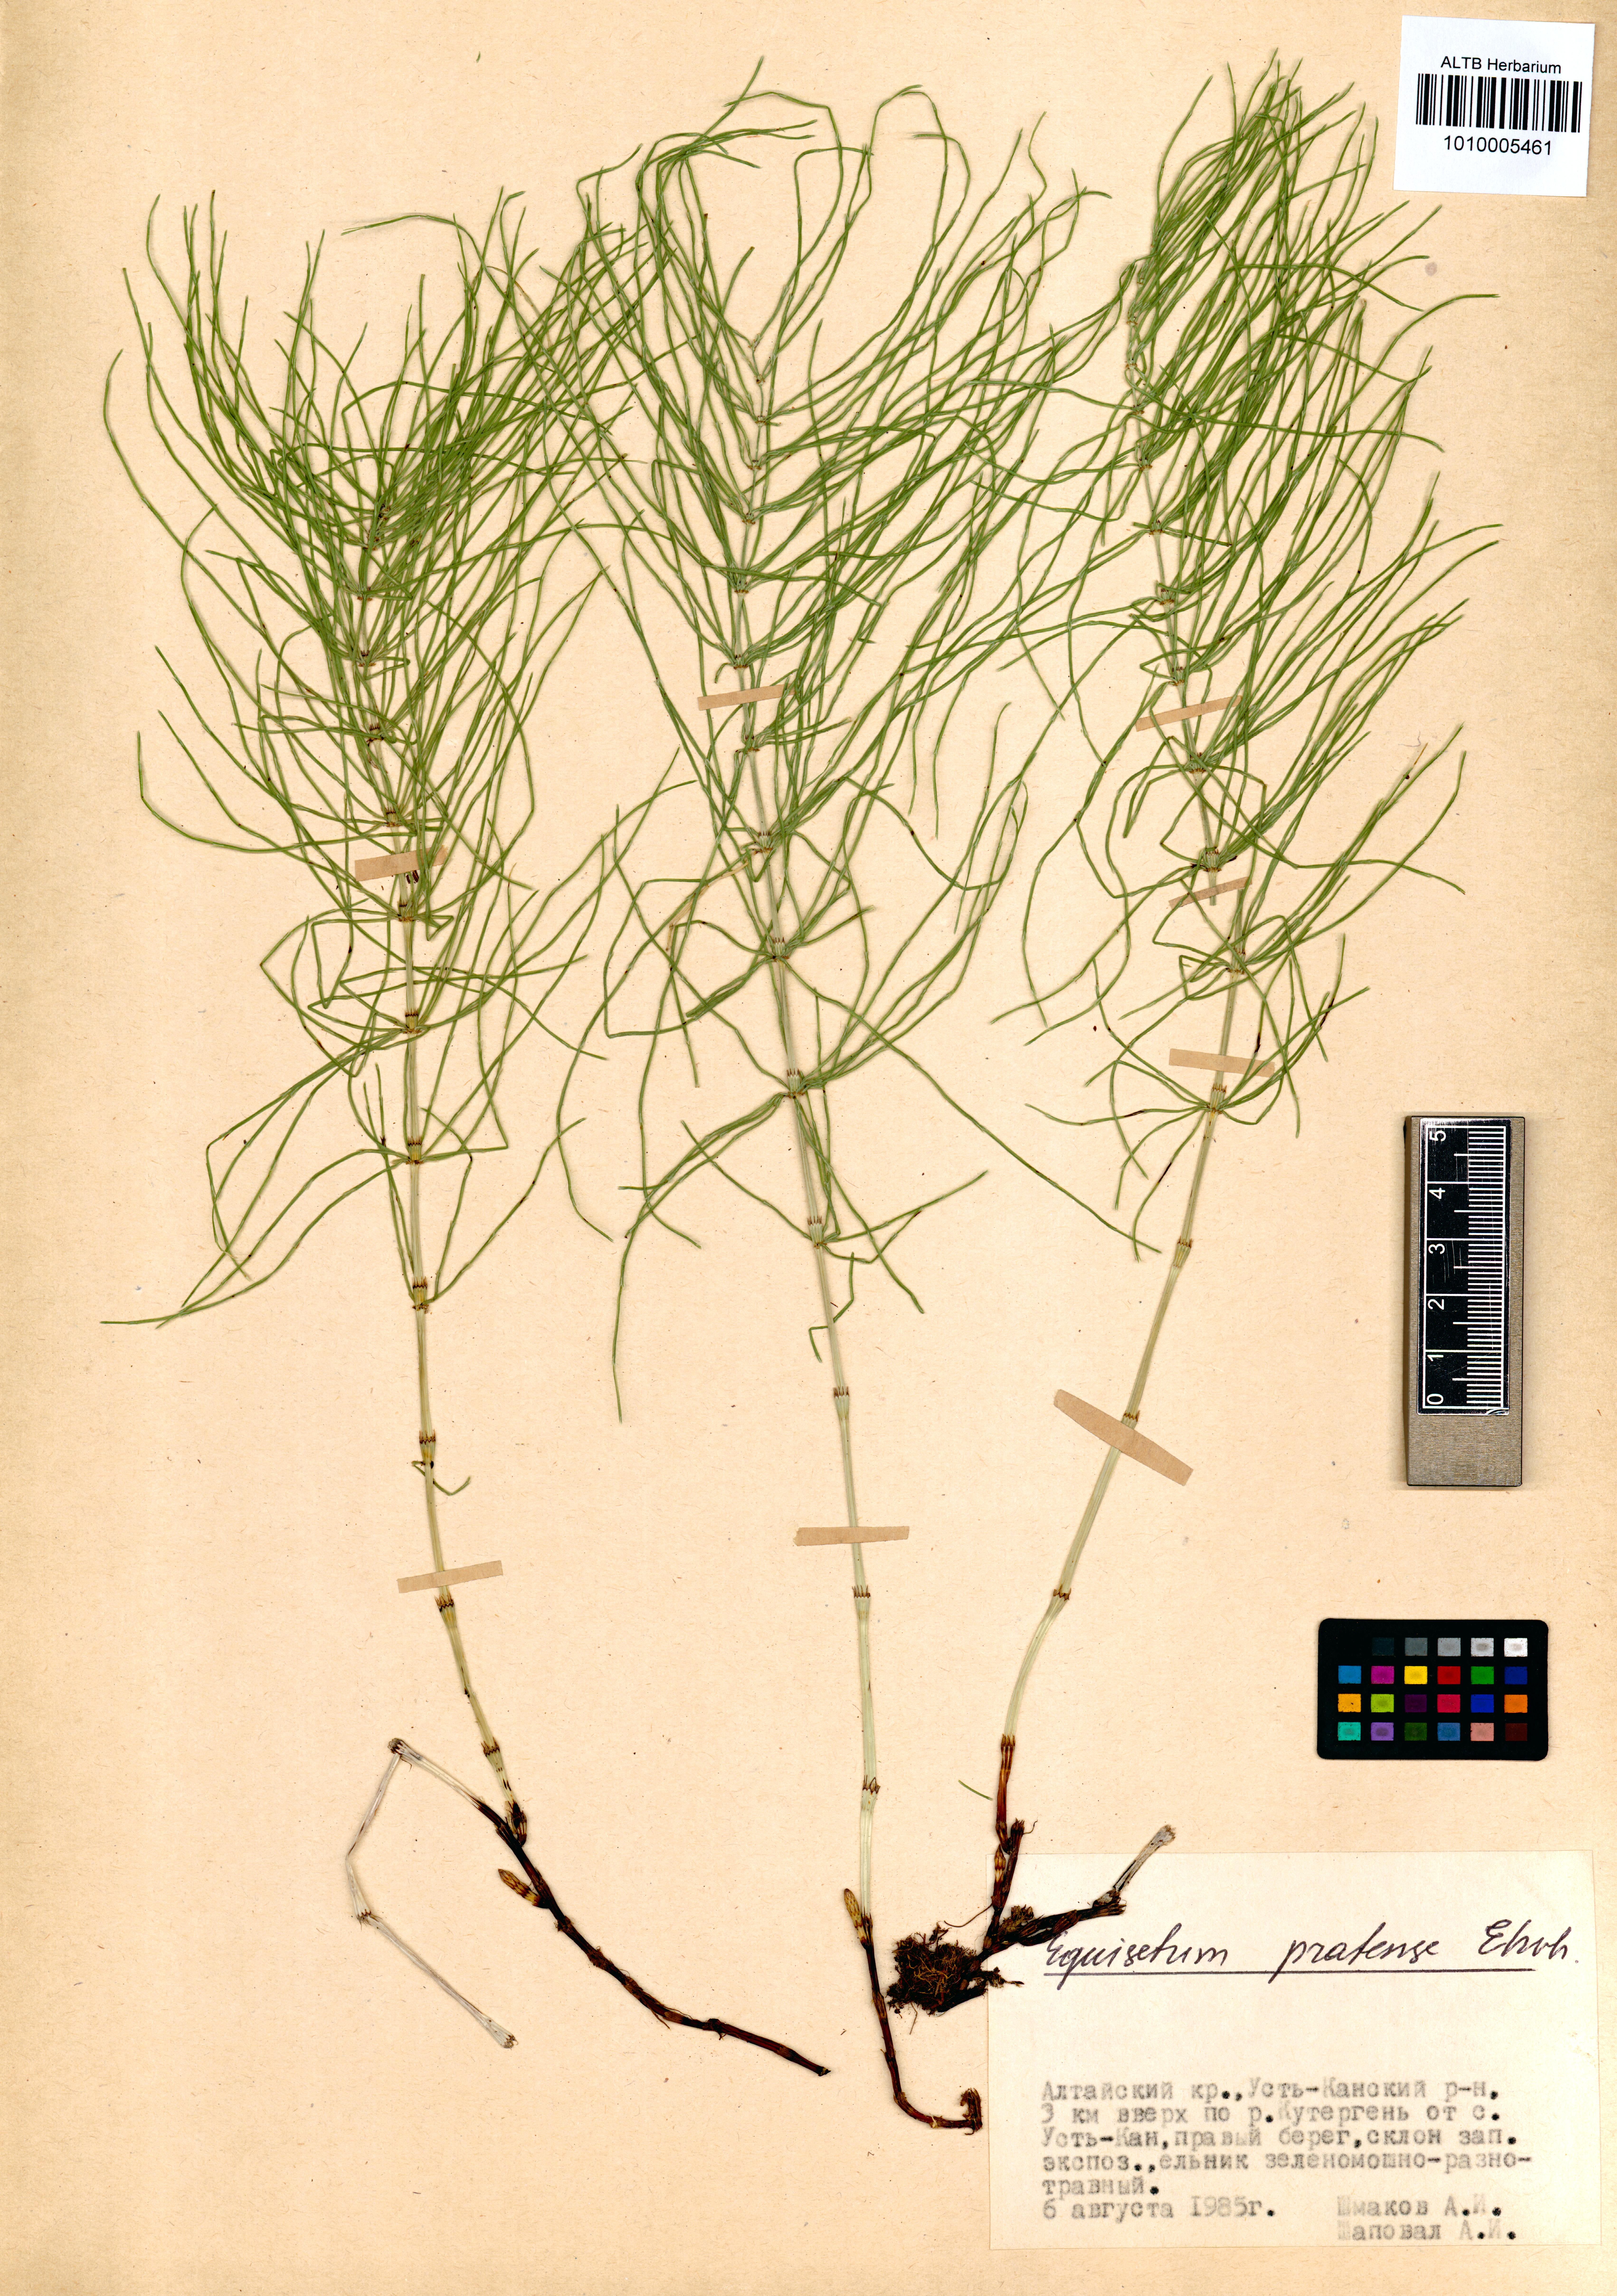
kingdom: Plantae
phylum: Tracheophyta
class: Polypodiopsida
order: Equisetales
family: Equisetaceae
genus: Equisetum
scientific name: Equisetum pratense
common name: Meadow horsetail
